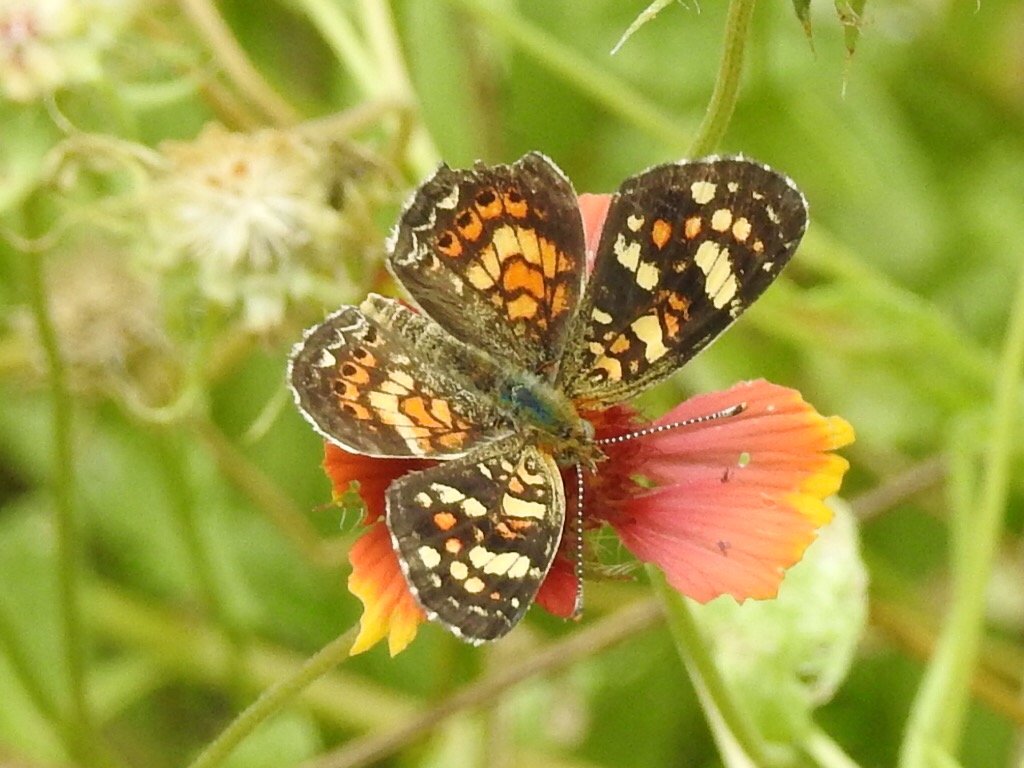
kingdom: Animalia
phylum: Arthropoda
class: Insecta
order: Lepidoptera
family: Nymphalidae
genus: Phyciodes
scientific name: Phyciodes picta
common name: Painted Crescent
